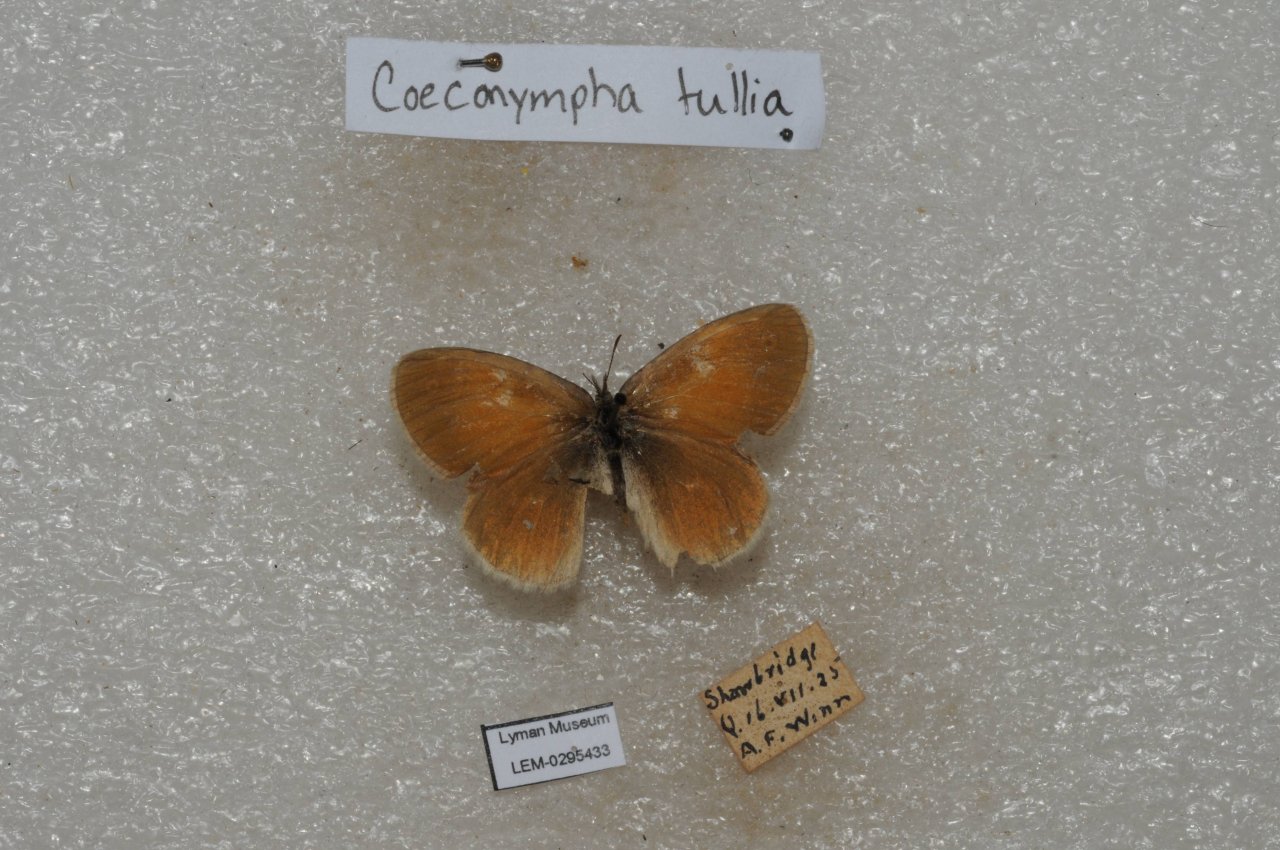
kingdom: Animalia
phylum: Arthropoda
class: Insecta
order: Lepidoptera
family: Nymphalidae
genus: Coenonympha
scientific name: Coenonympha tullia
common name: Large Heath
